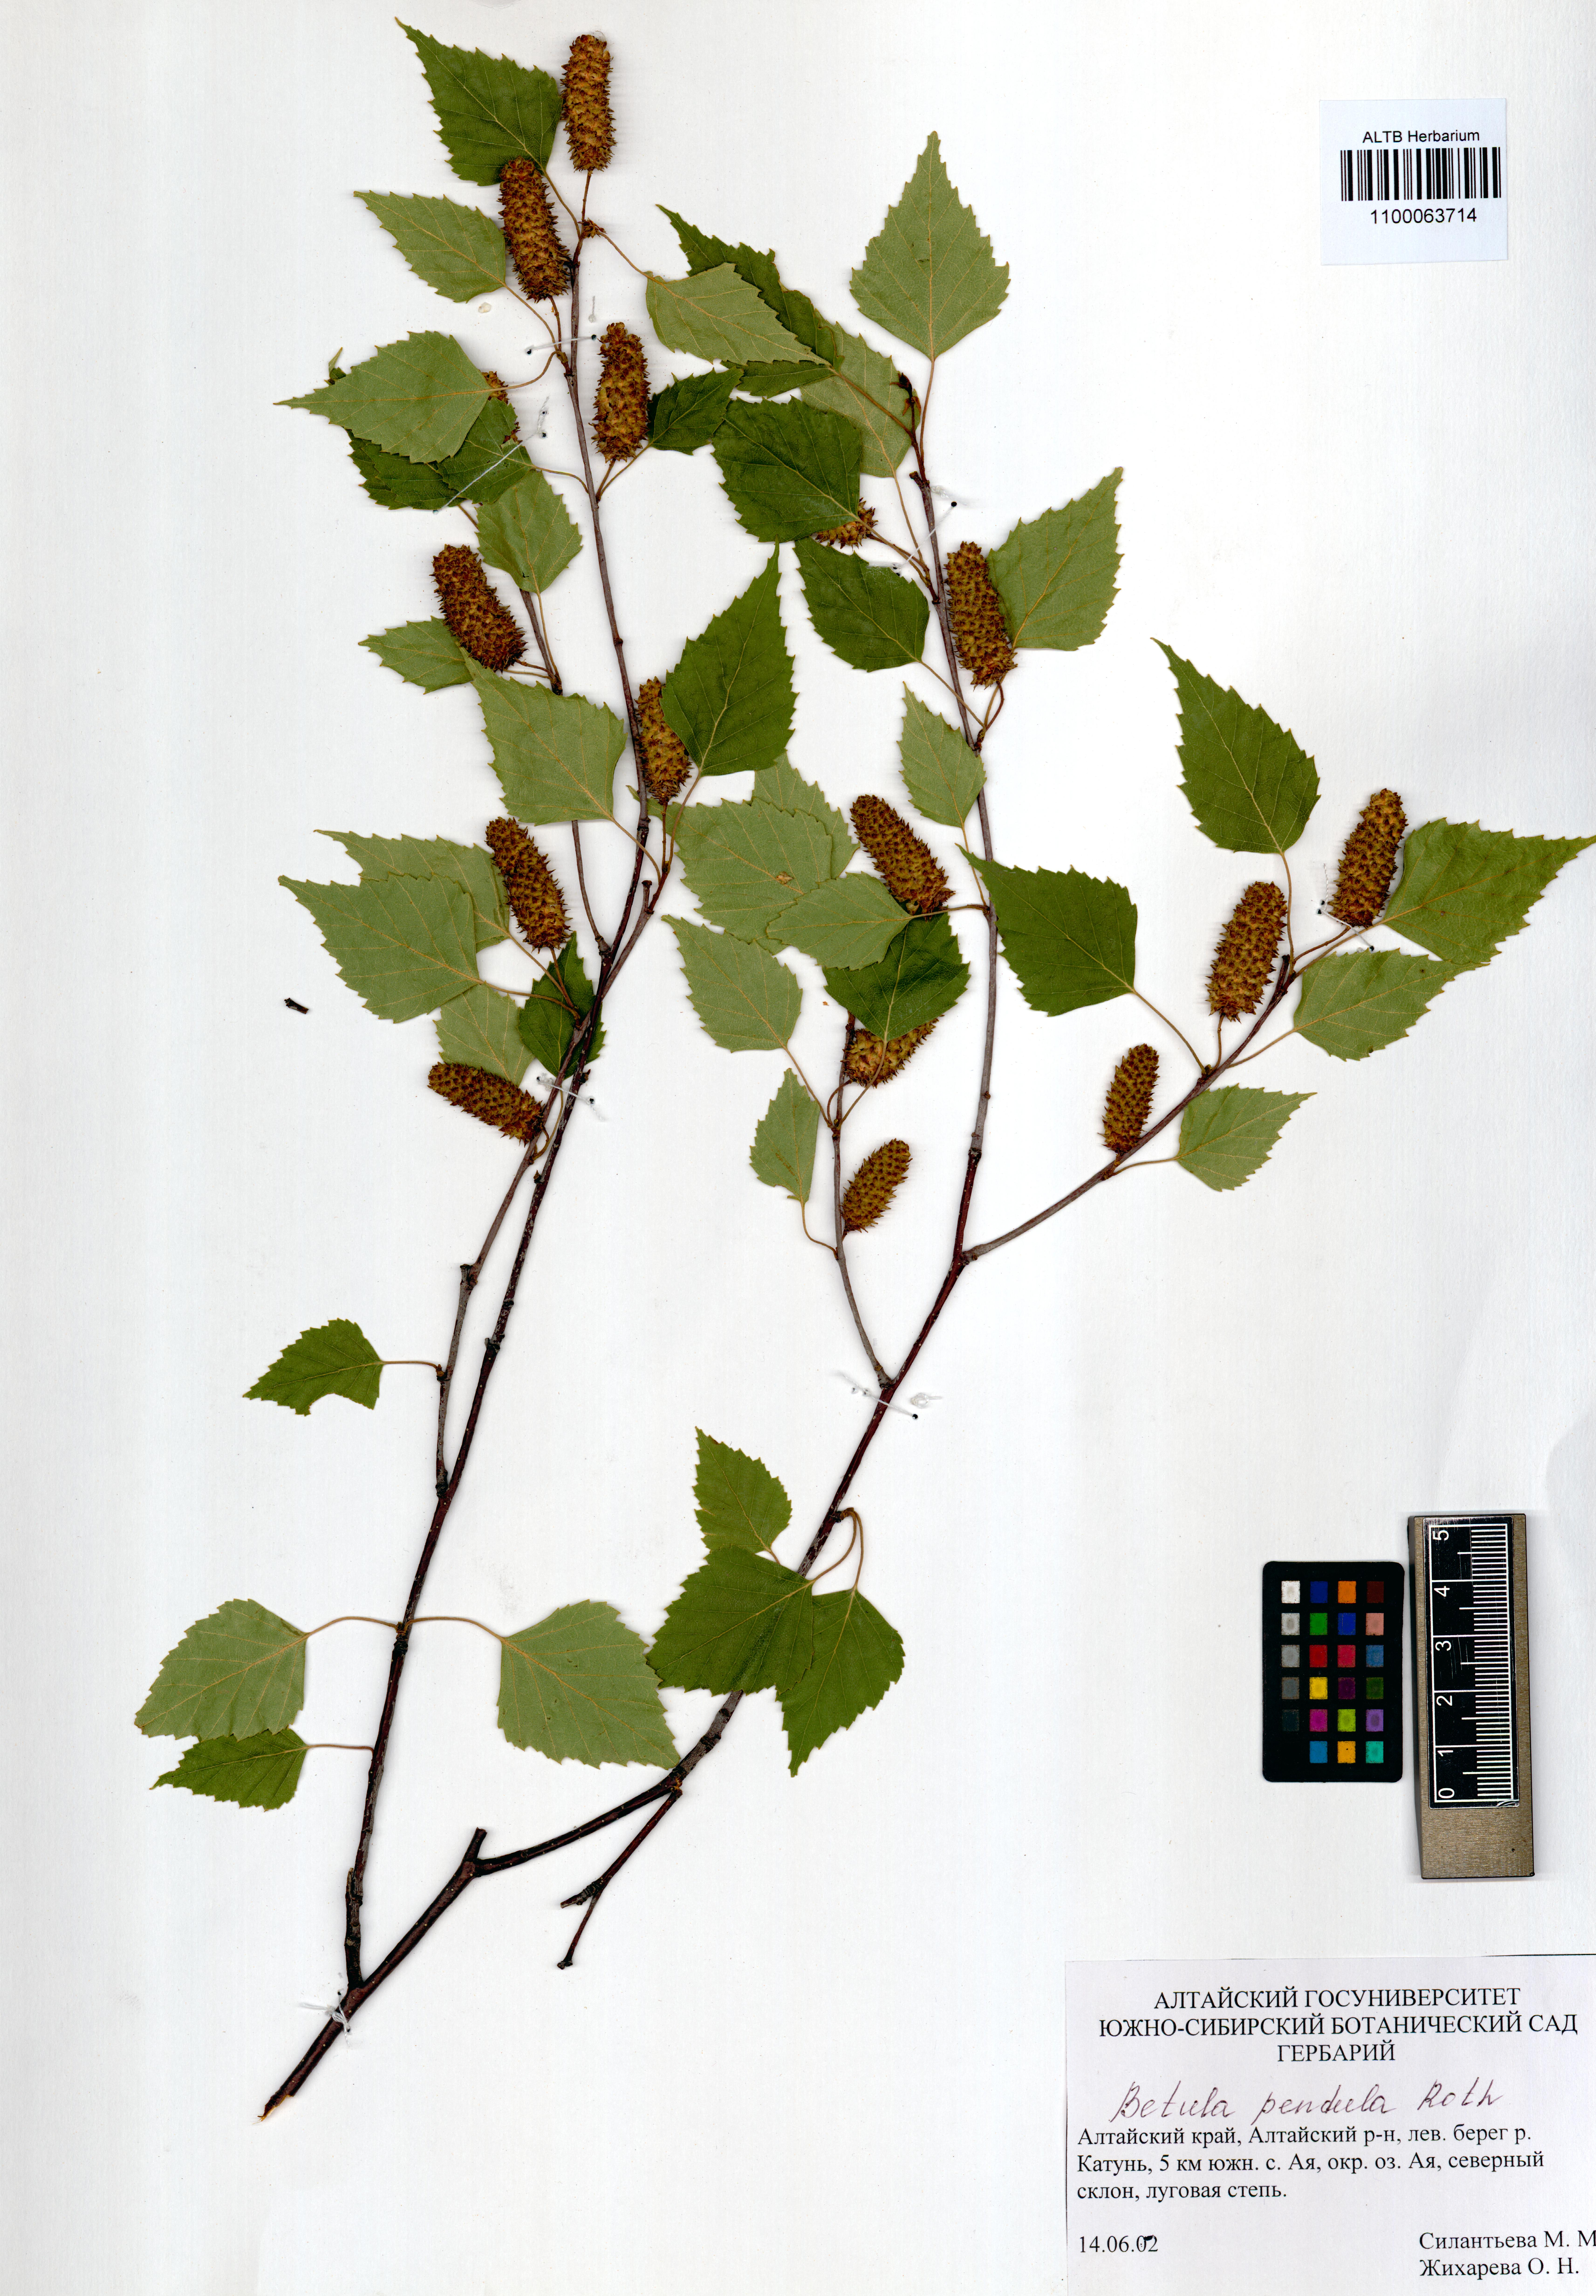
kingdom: Plantae
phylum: Tracheophyta
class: Magnoliopsida
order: Fagales
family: Betulaceae
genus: Betula
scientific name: Betula pendula
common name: Silver birch
